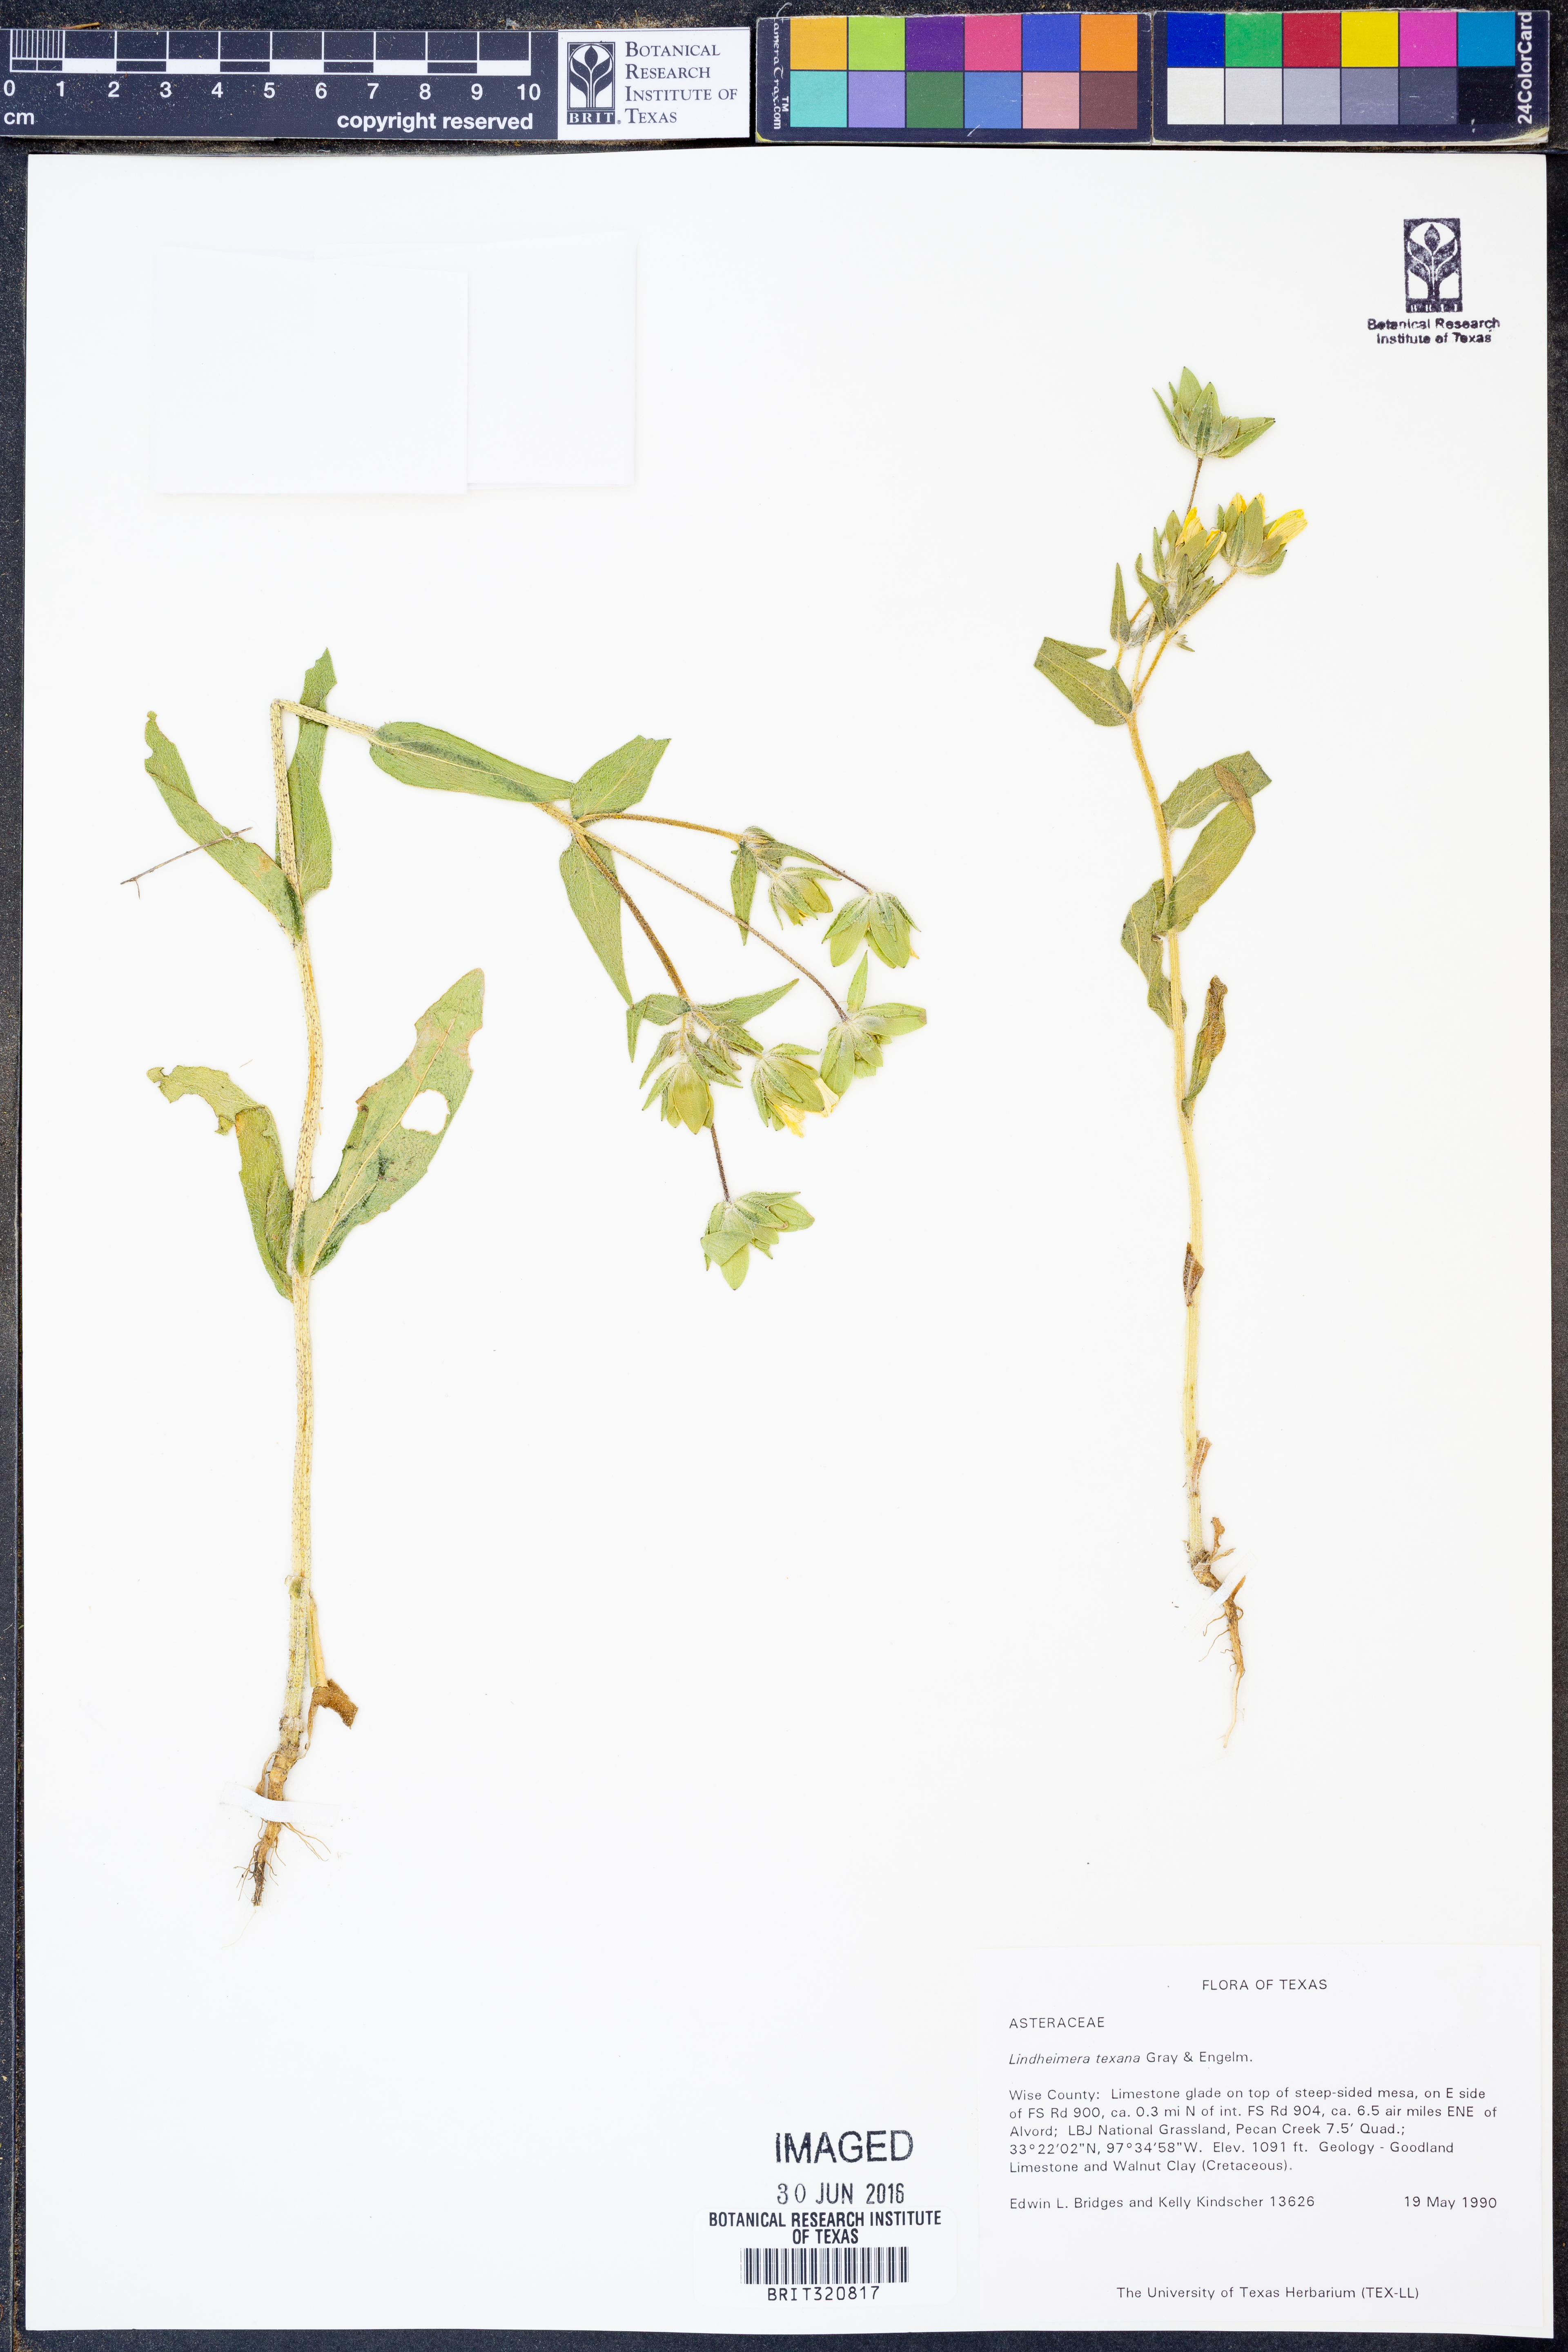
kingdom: Plantae
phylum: Tracheophyta
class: Magnoliopsida
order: Asterales
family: Asteraceae
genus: Lindheimera
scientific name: Lindheimera texana
